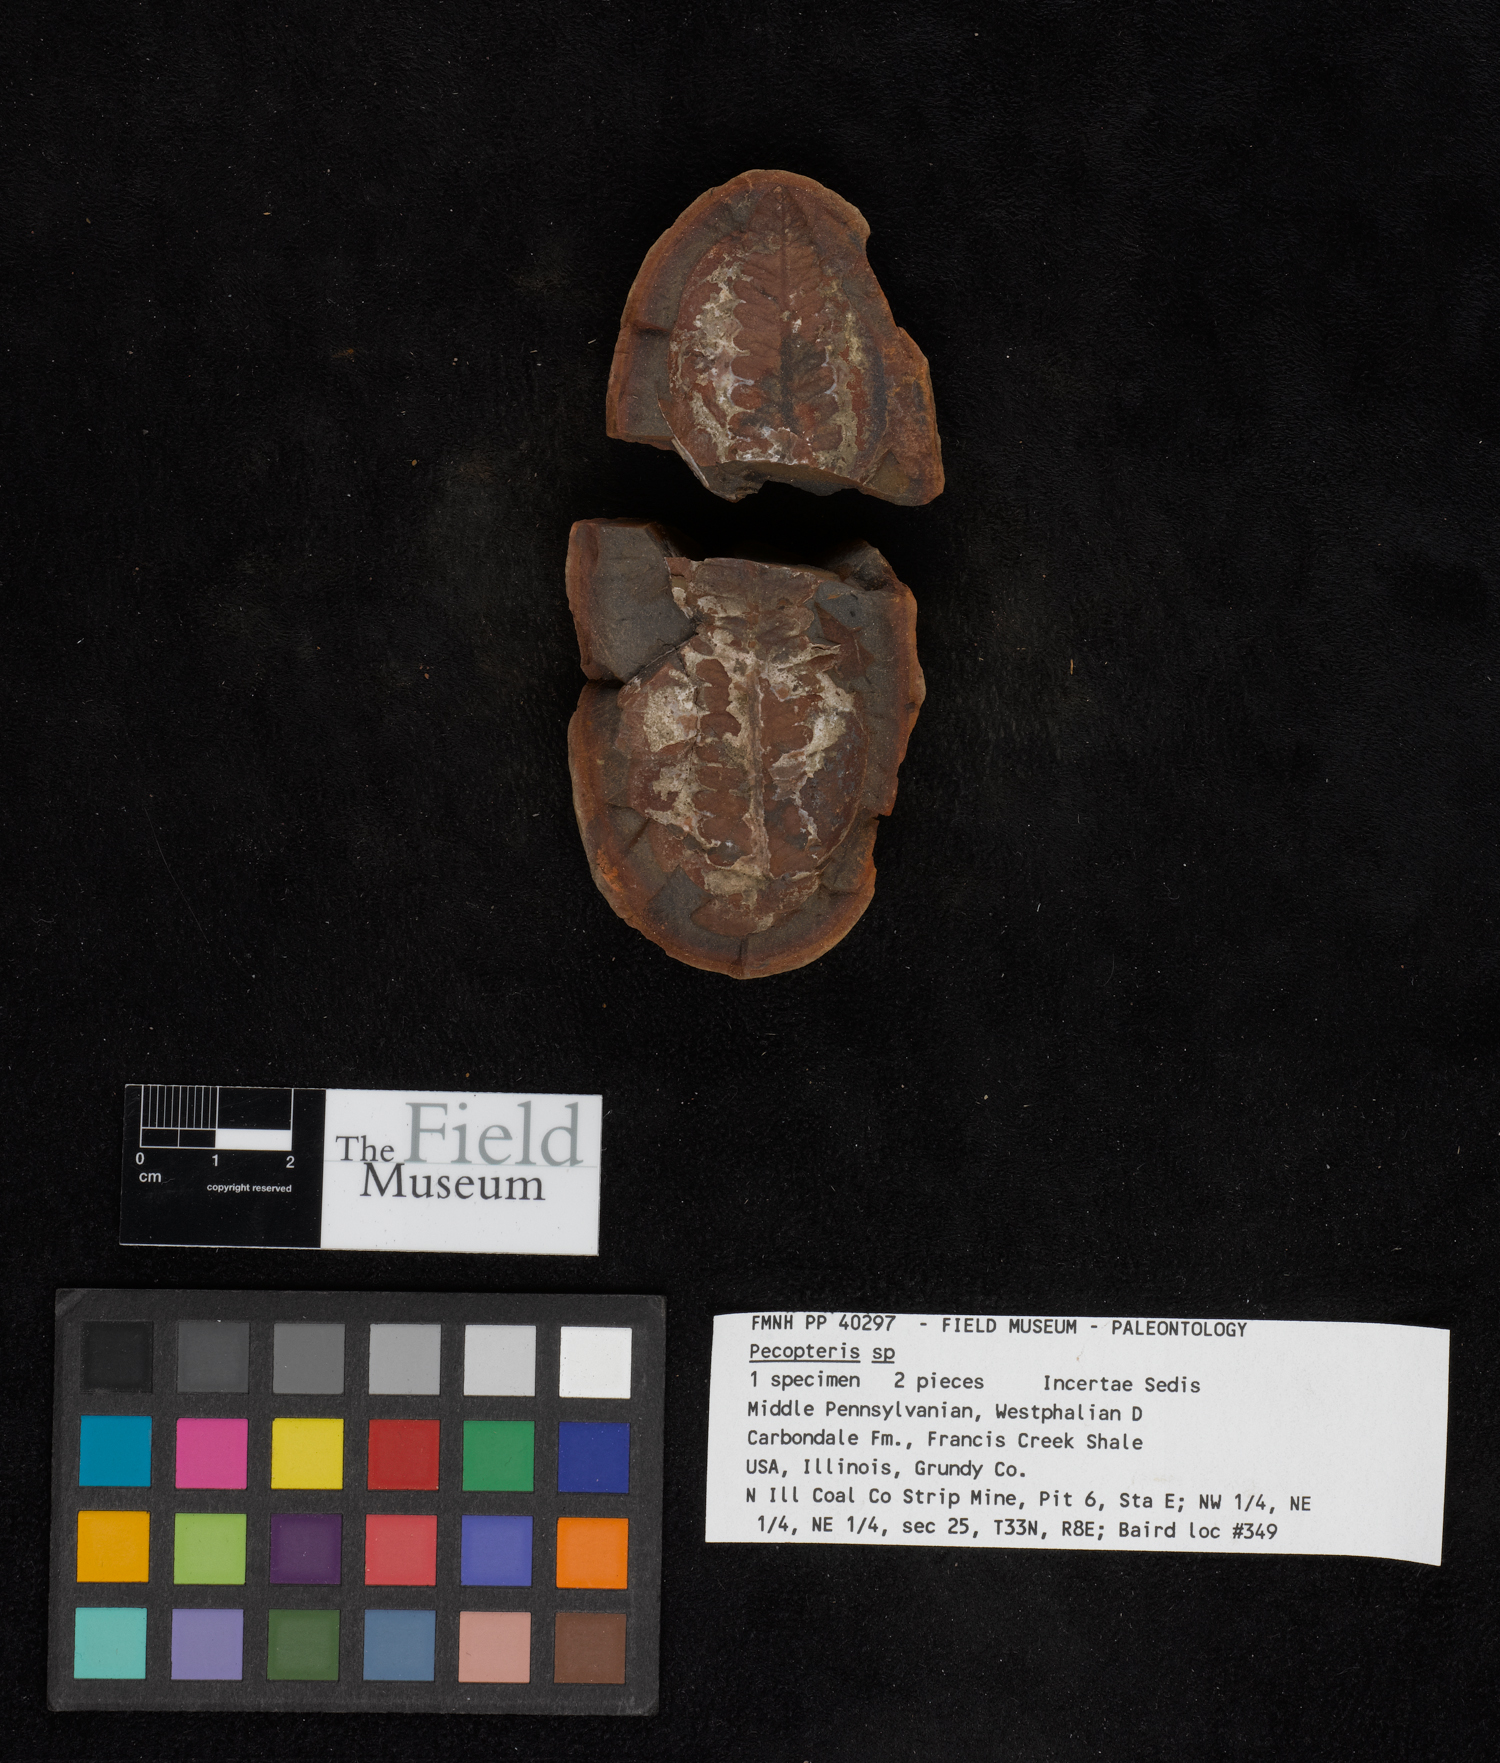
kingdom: Plantae
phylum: Tracheophyta
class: Polypodiopsida
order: Marattiales
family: Asterothecaceae
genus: Pecopteris
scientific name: Pecopteris
